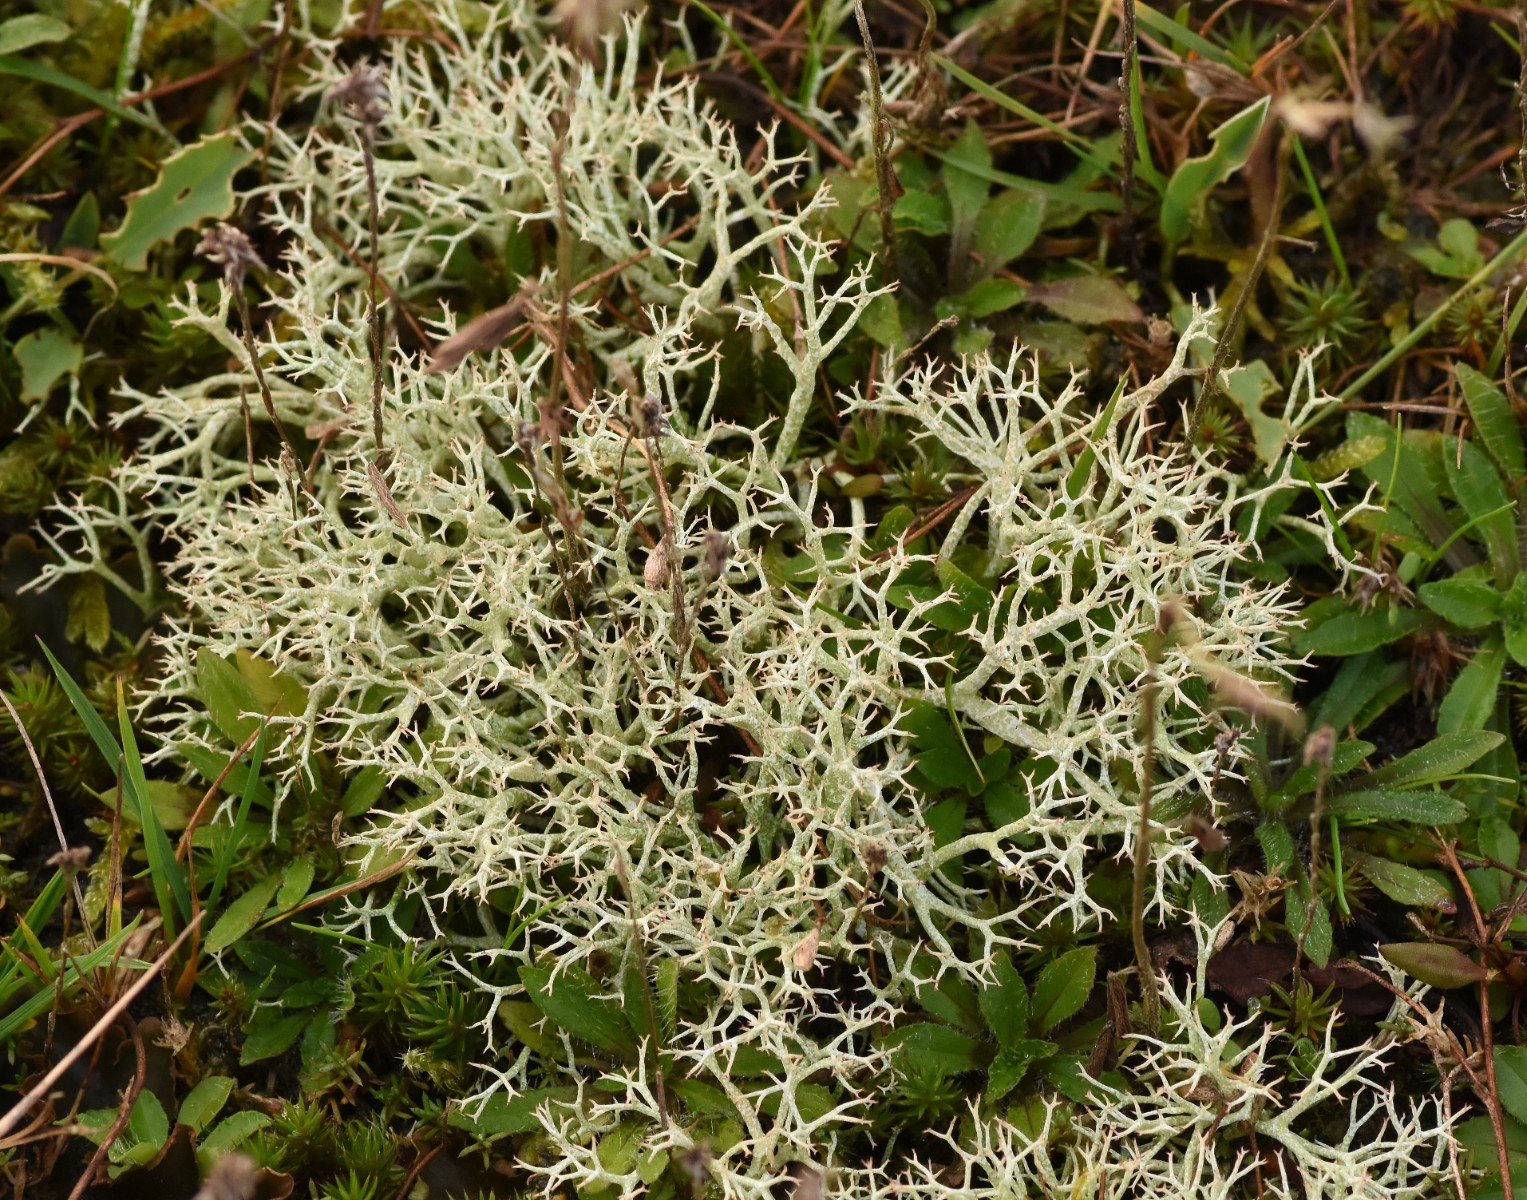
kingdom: Fungi
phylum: Ascomycota
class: Lecanoromycetes
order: Lecanorales
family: Cladoniaceae
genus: Cladonia
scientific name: Cladonia portentosa
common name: hede-rensdyrlav
